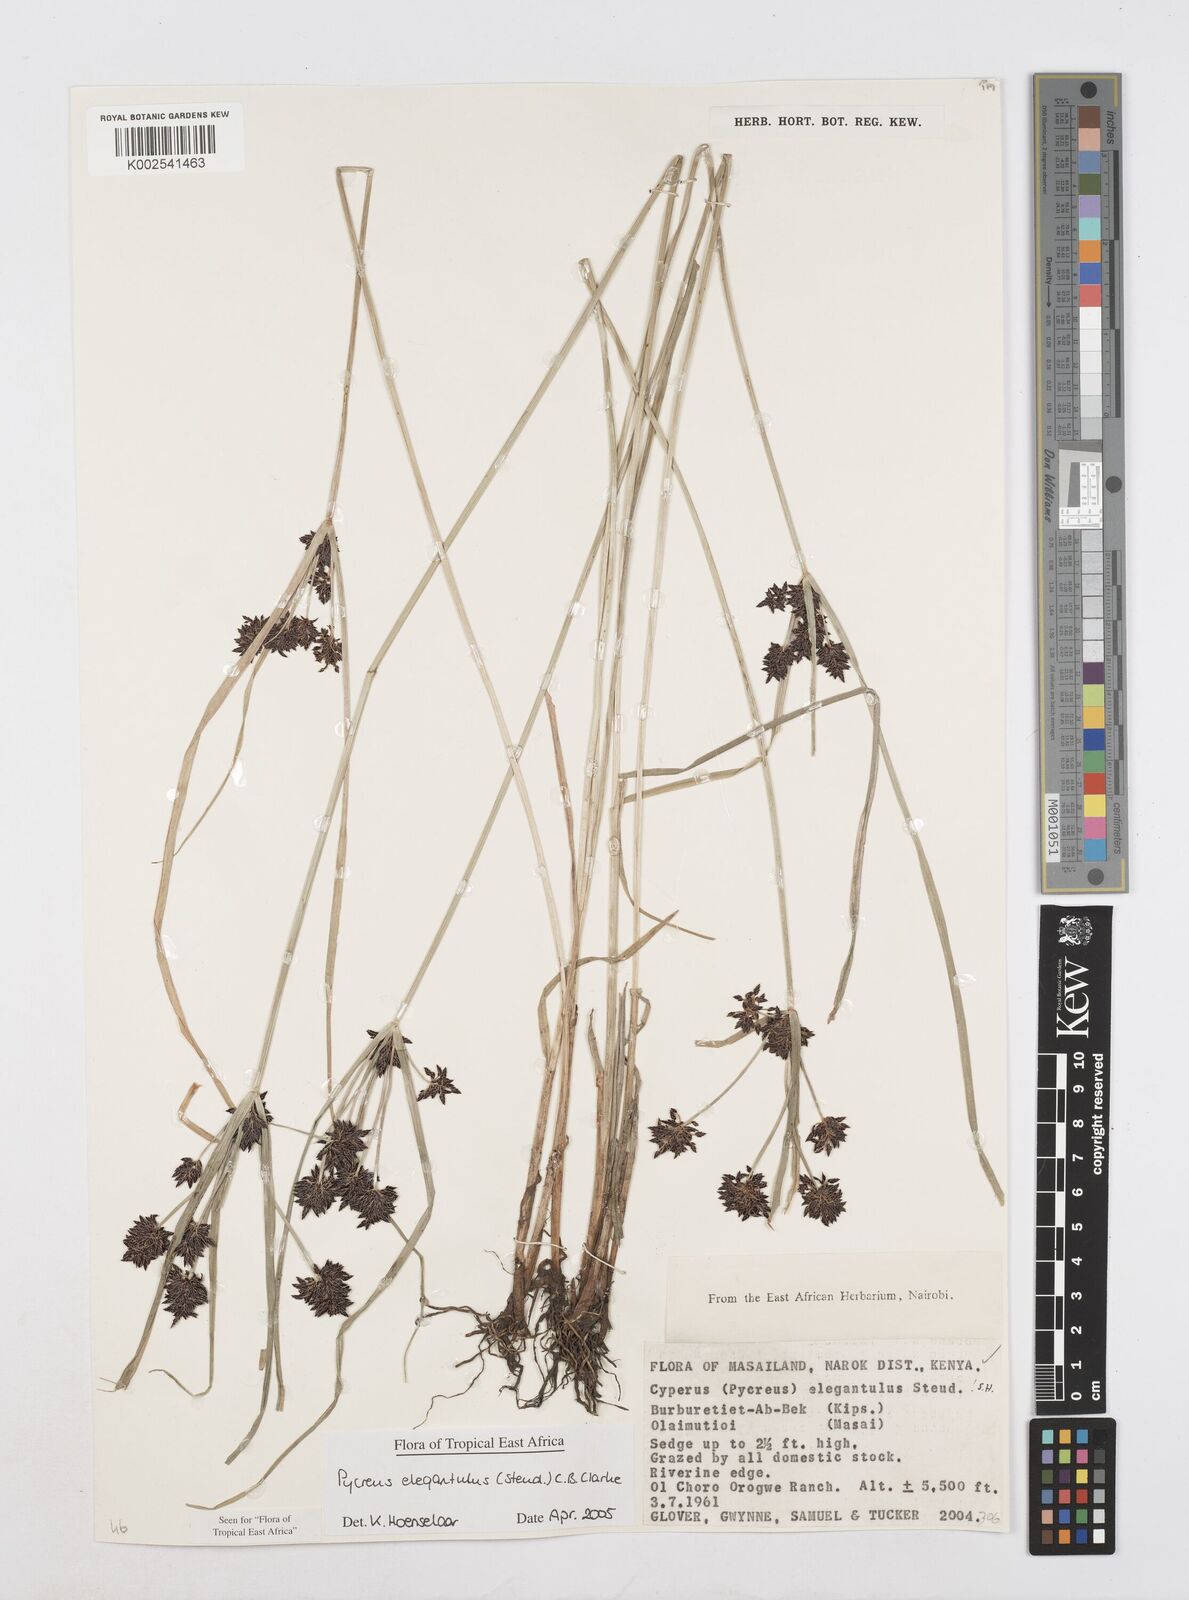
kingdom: Plantae
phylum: Tracheophyta
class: Liliopsida
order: Poales
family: Cyperaceae
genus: Cyperus
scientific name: Cyperus elegantulus
